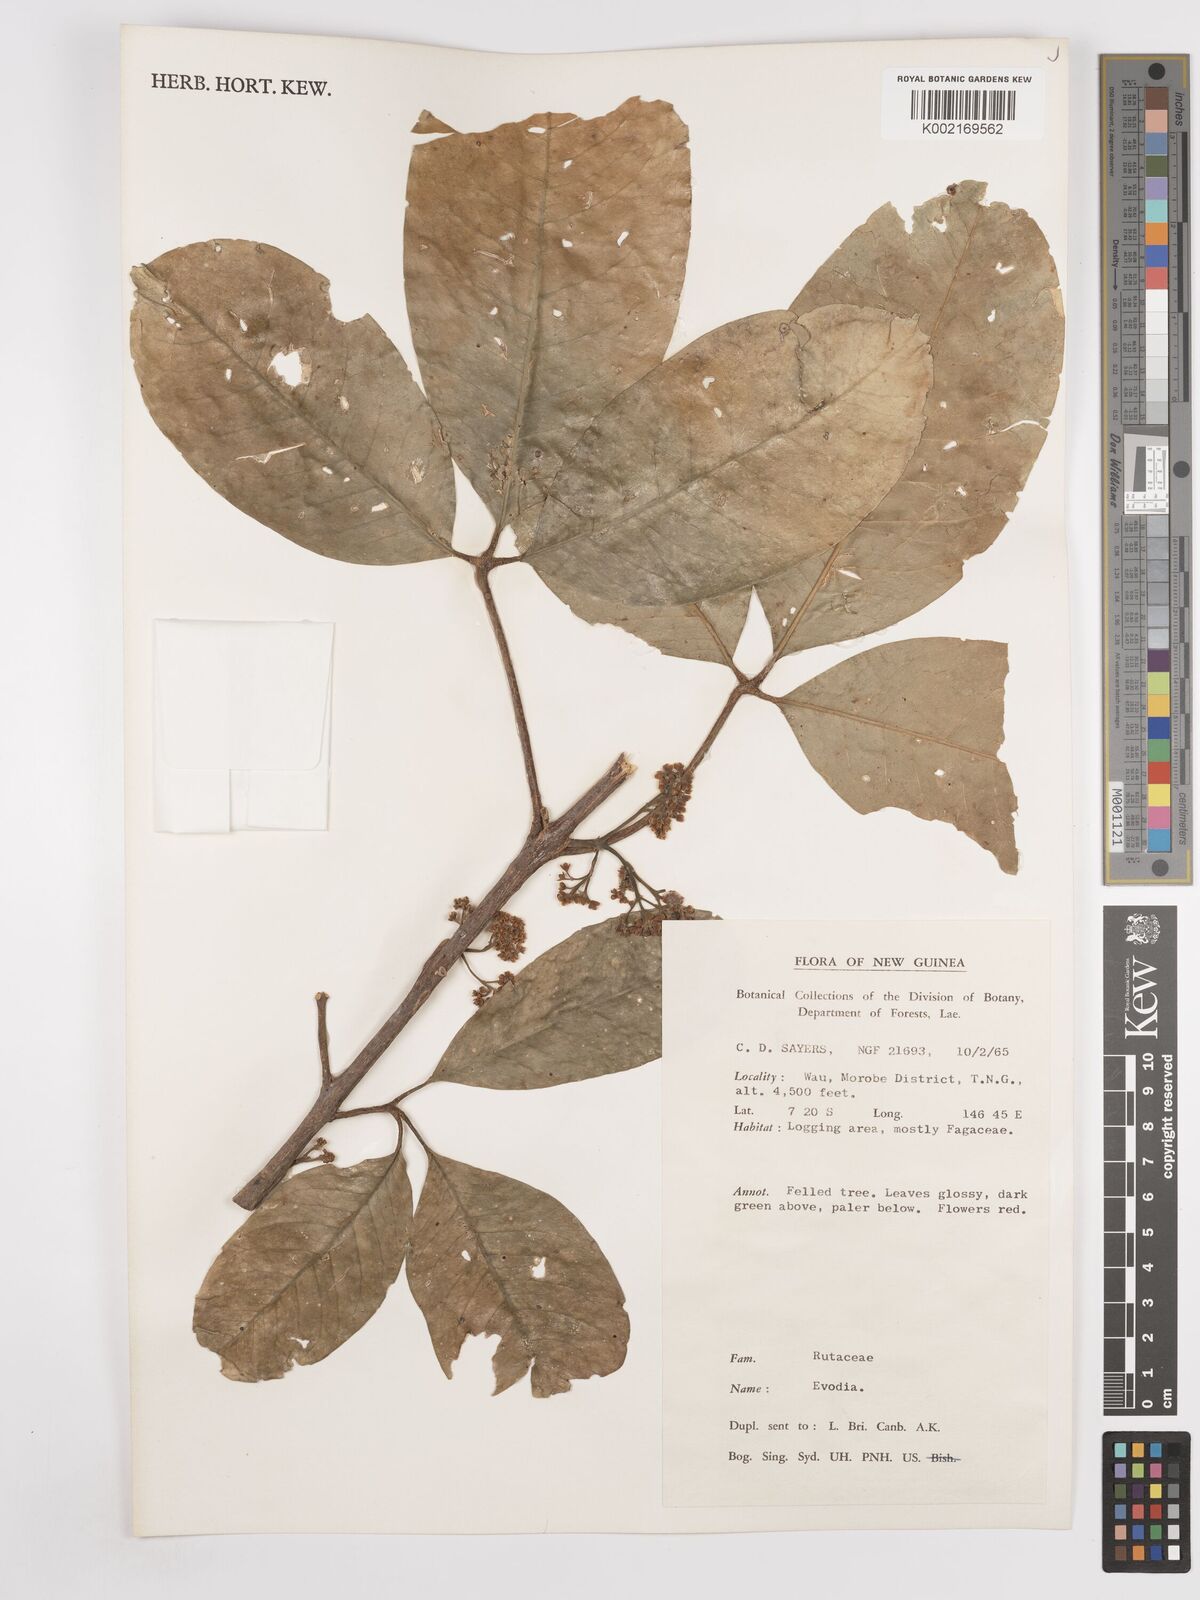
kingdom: Plantae
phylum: Tracheophyta
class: Magnoliopsida
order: Sapindales
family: Rutaceae
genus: Euodia
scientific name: Euodia
